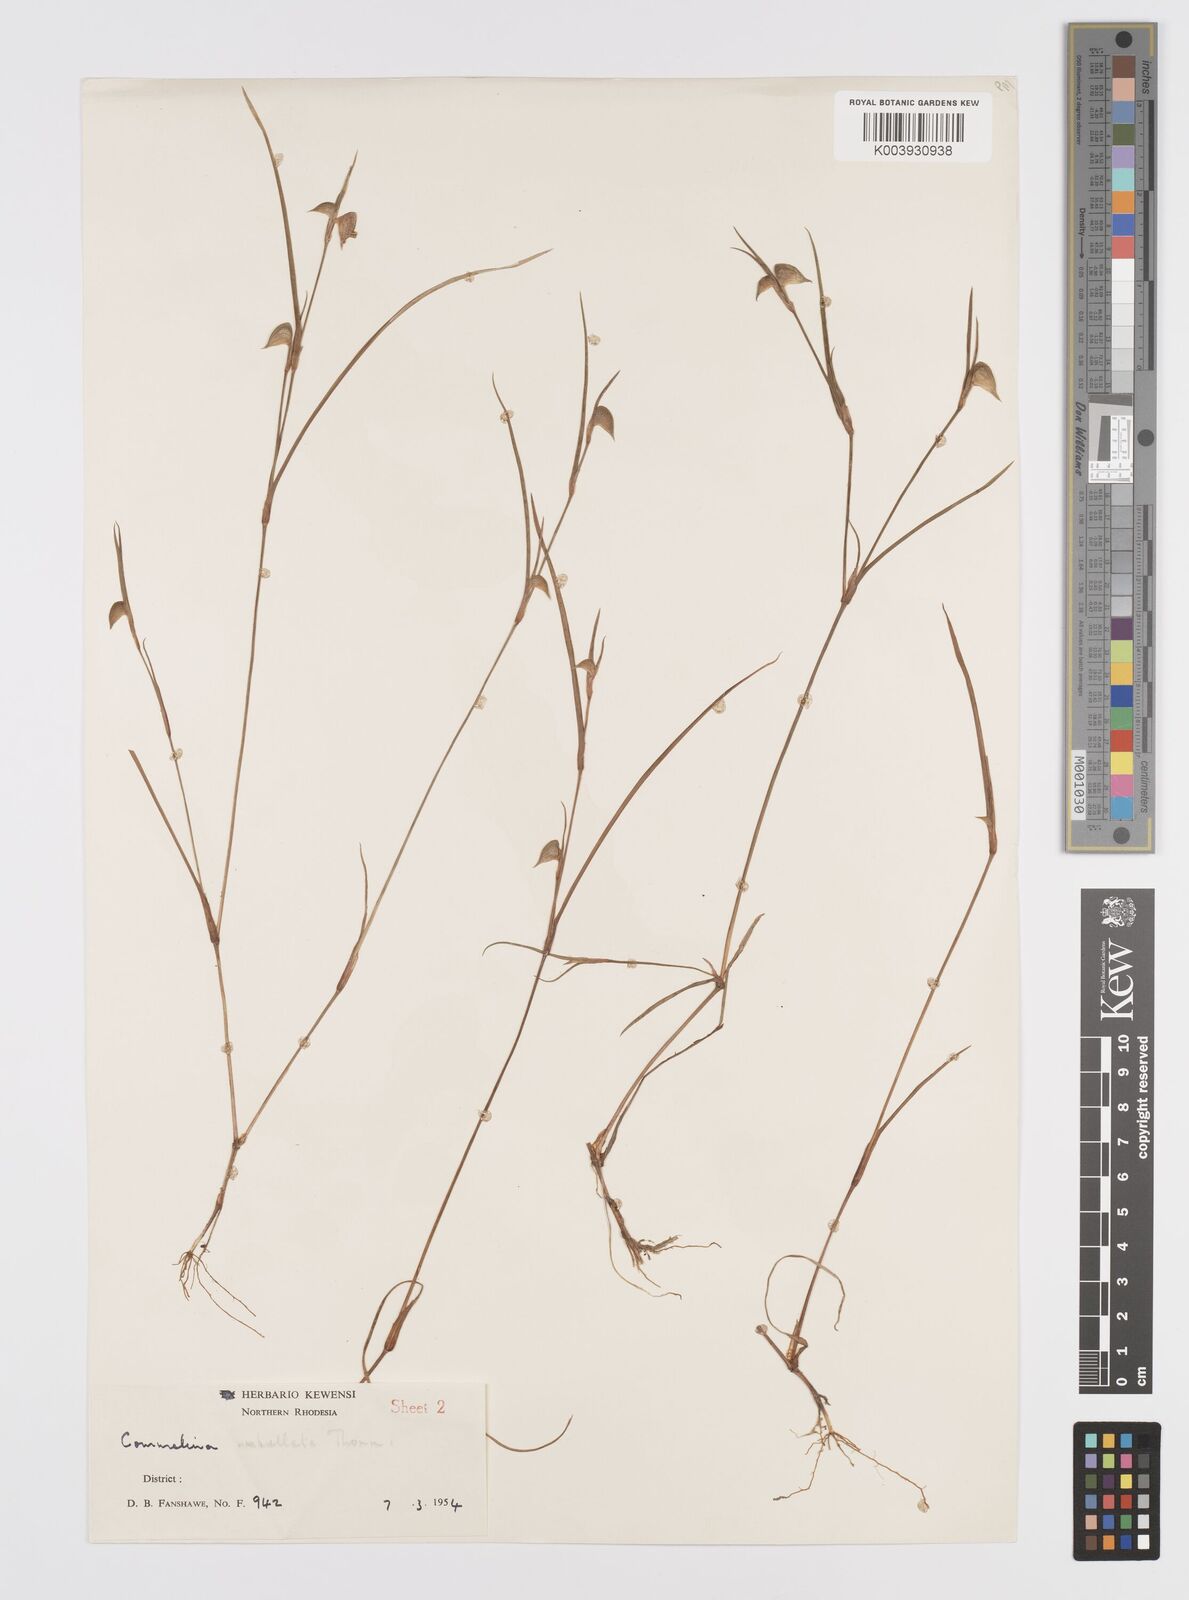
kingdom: Plantae
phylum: Tracheophyta
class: Liliopsida
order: Commelinales
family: Commelinaceae
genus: Commelina
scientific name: Commelina nigritana
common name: African dayflower
